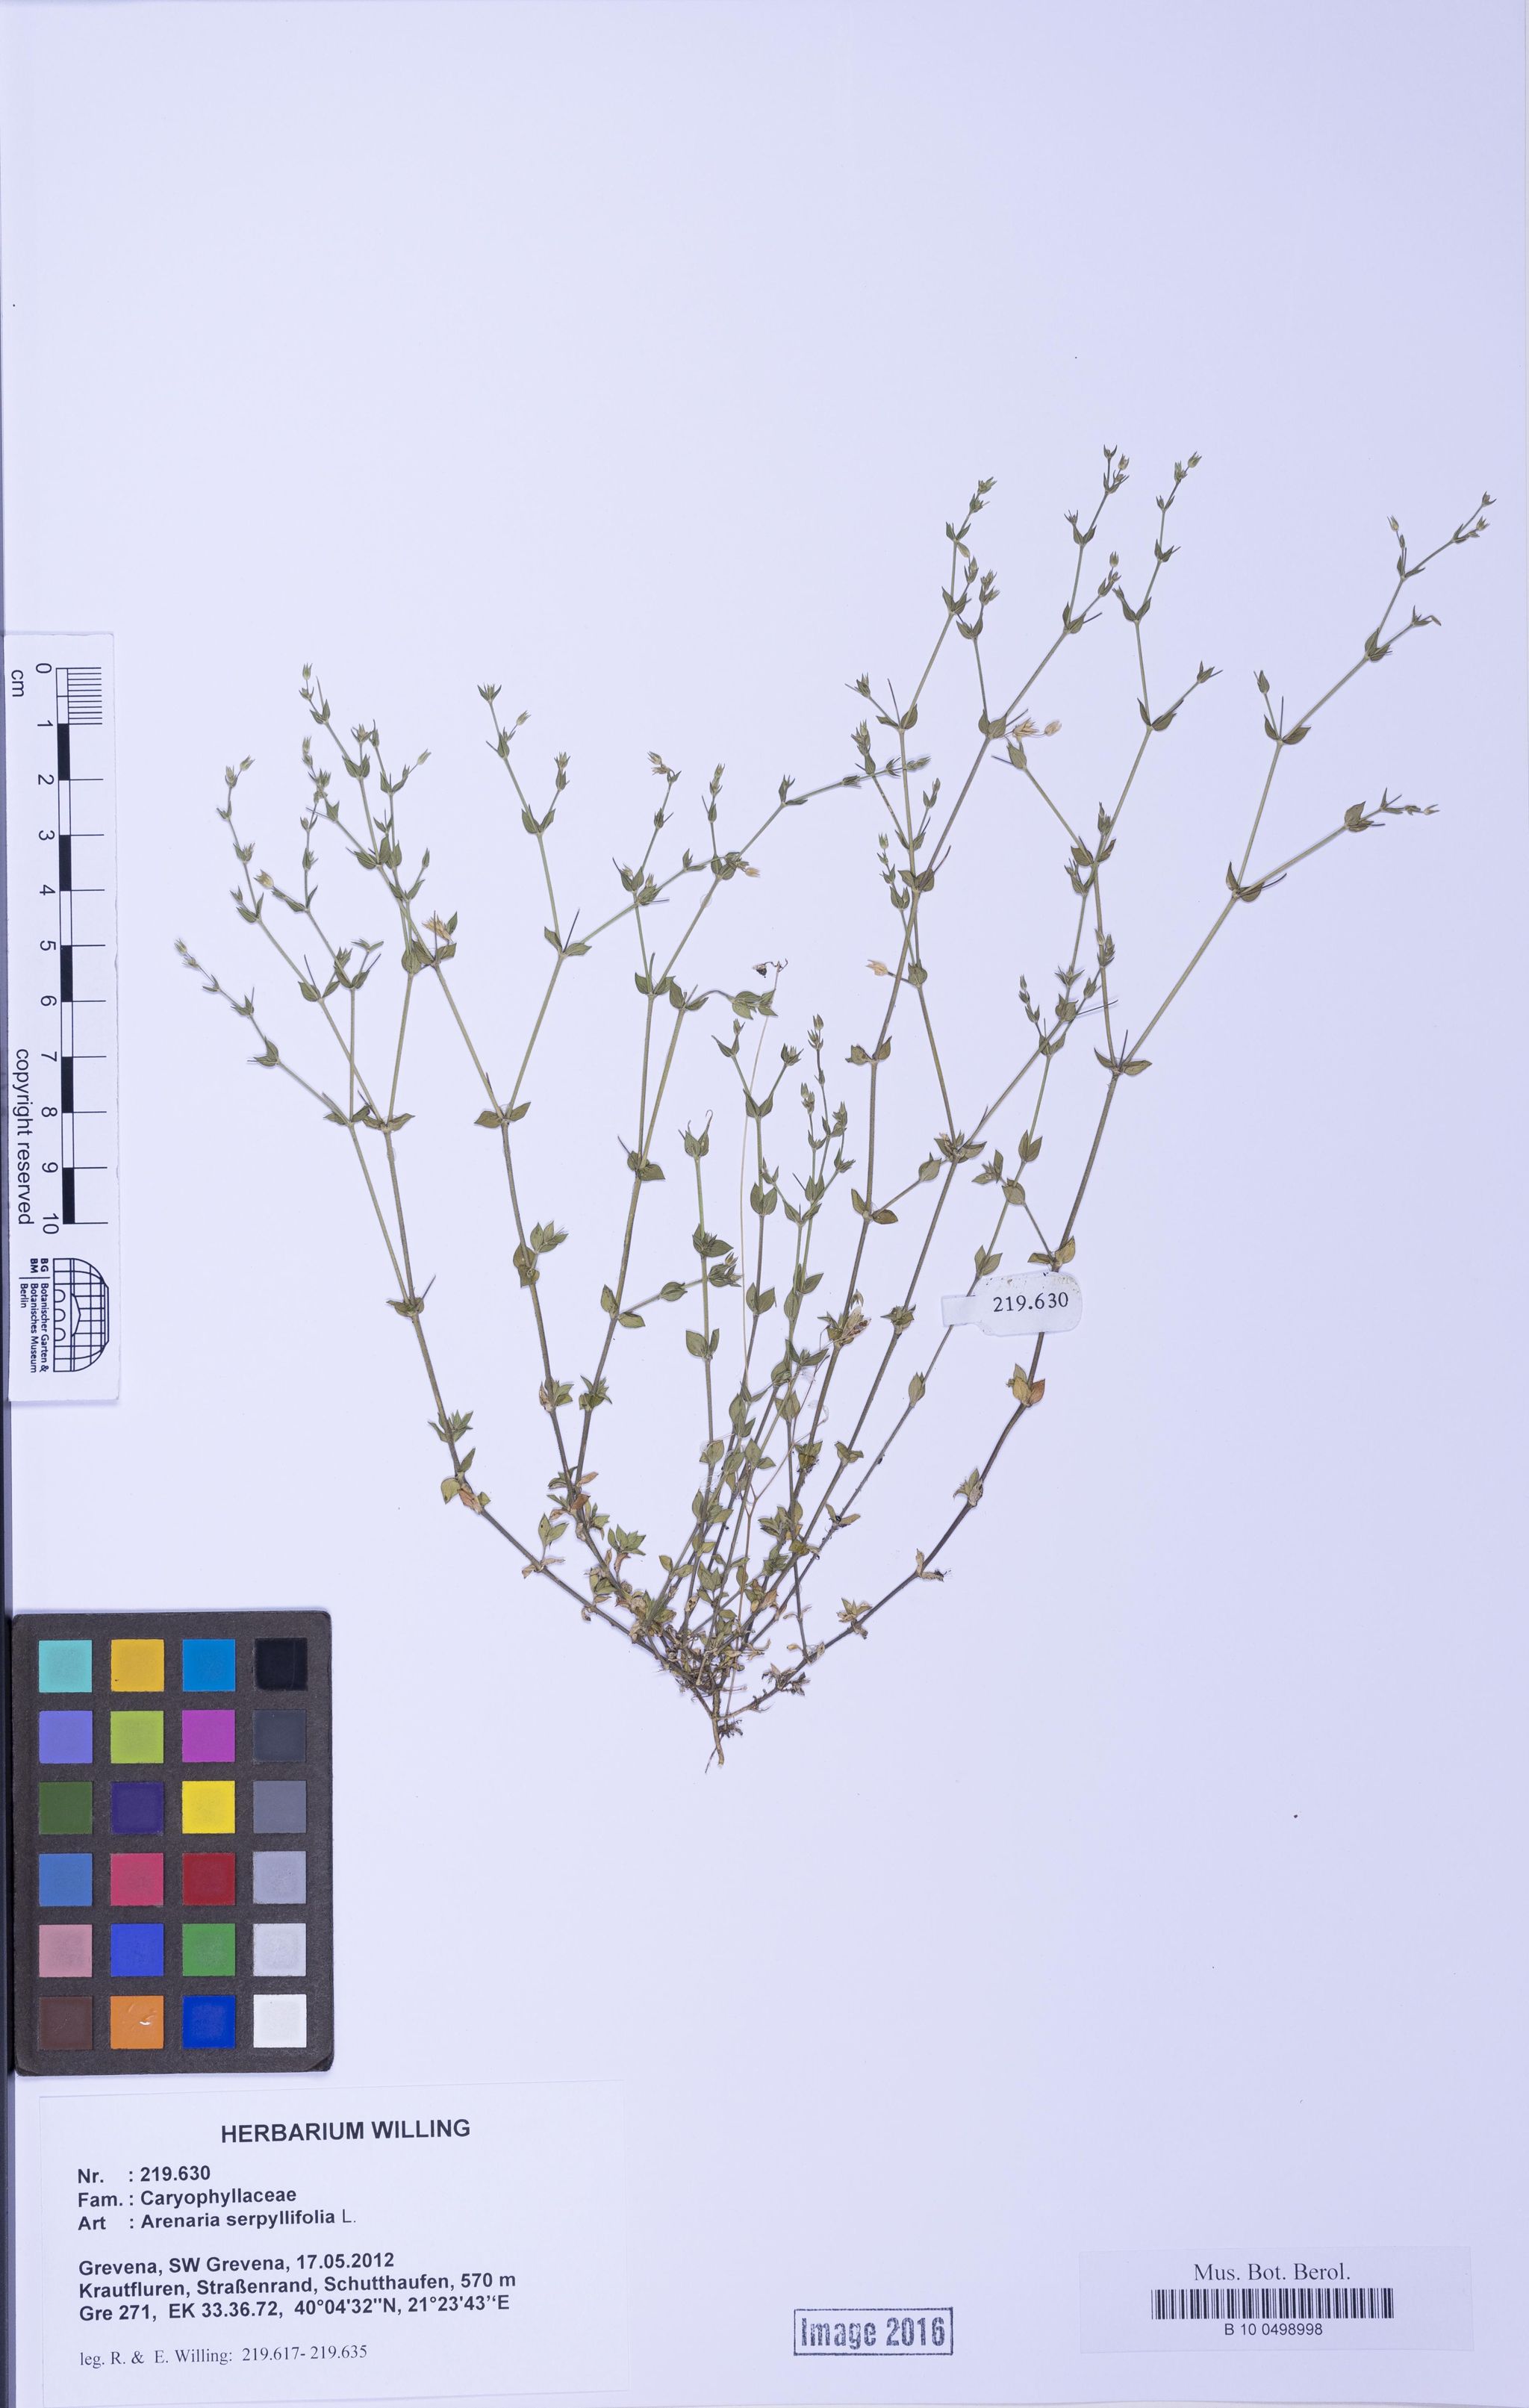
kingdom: Plantae
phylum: Tracheophyta
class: Magnoliopsida
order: Caryophyllales
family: Caryophyllaceae
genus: Arenaria
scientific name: Arenaria serpyllifolia
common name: Thyme-leaved sandwort
